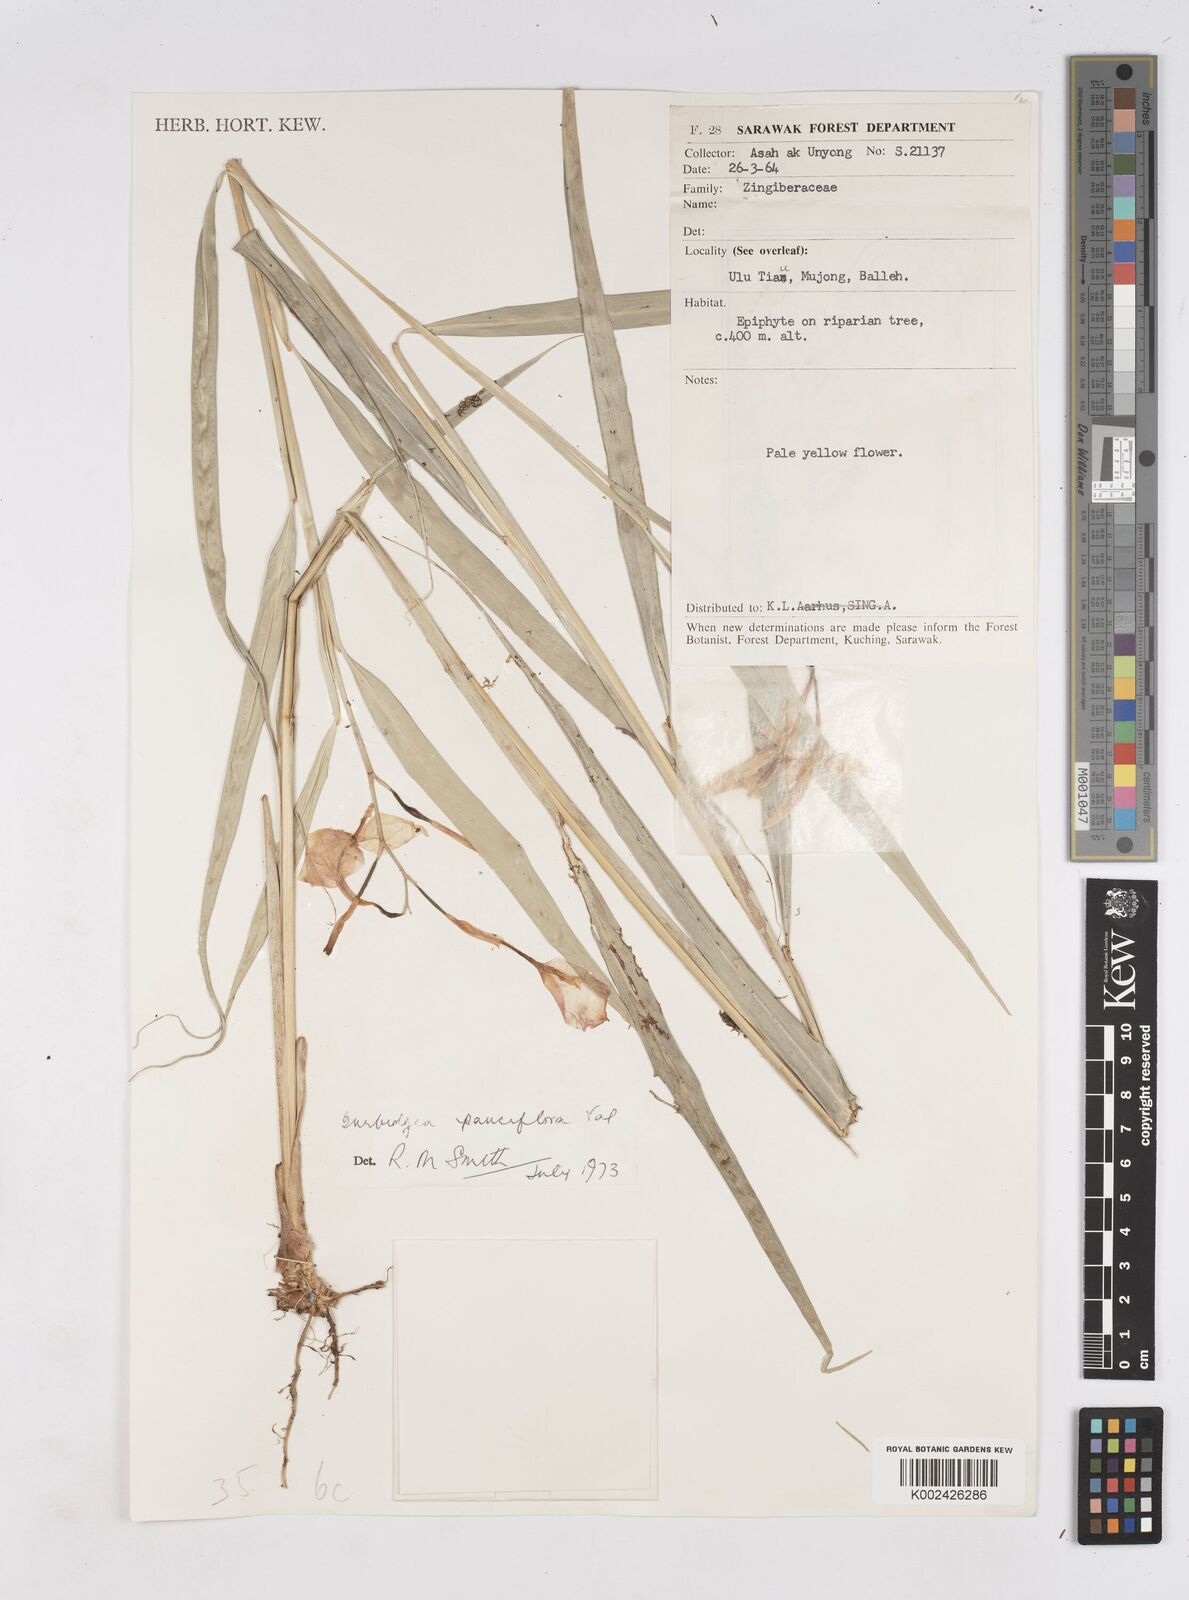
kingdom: Plantae
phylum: Tracheophyta
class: Liliopsida
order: Zingiberales
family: Zingiberaceae
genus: Burbidgea
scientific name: Burbidgea pauciflora
